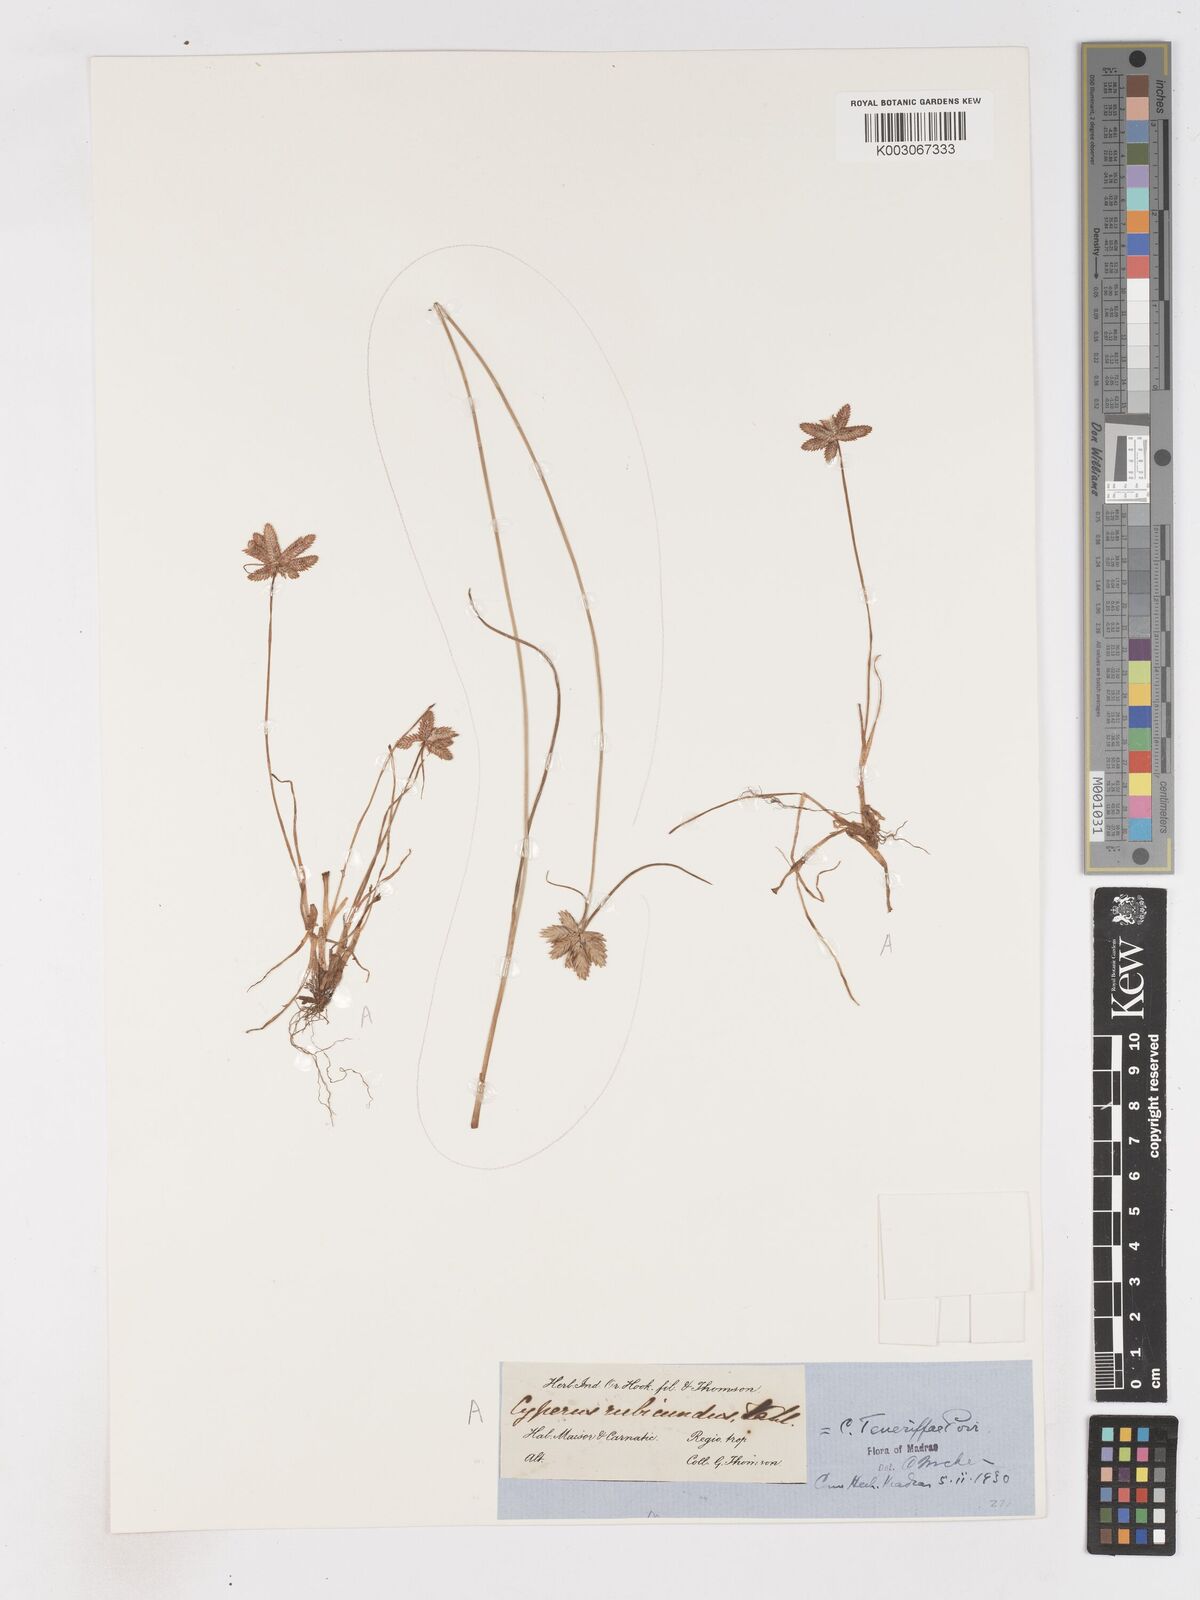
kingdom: Plantae
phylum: Tracheophyta
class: Liliopsida
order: Poales
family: Cyperaceae
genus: Cyperus
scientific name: Cyperus rubicundus
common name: Coco-grass
